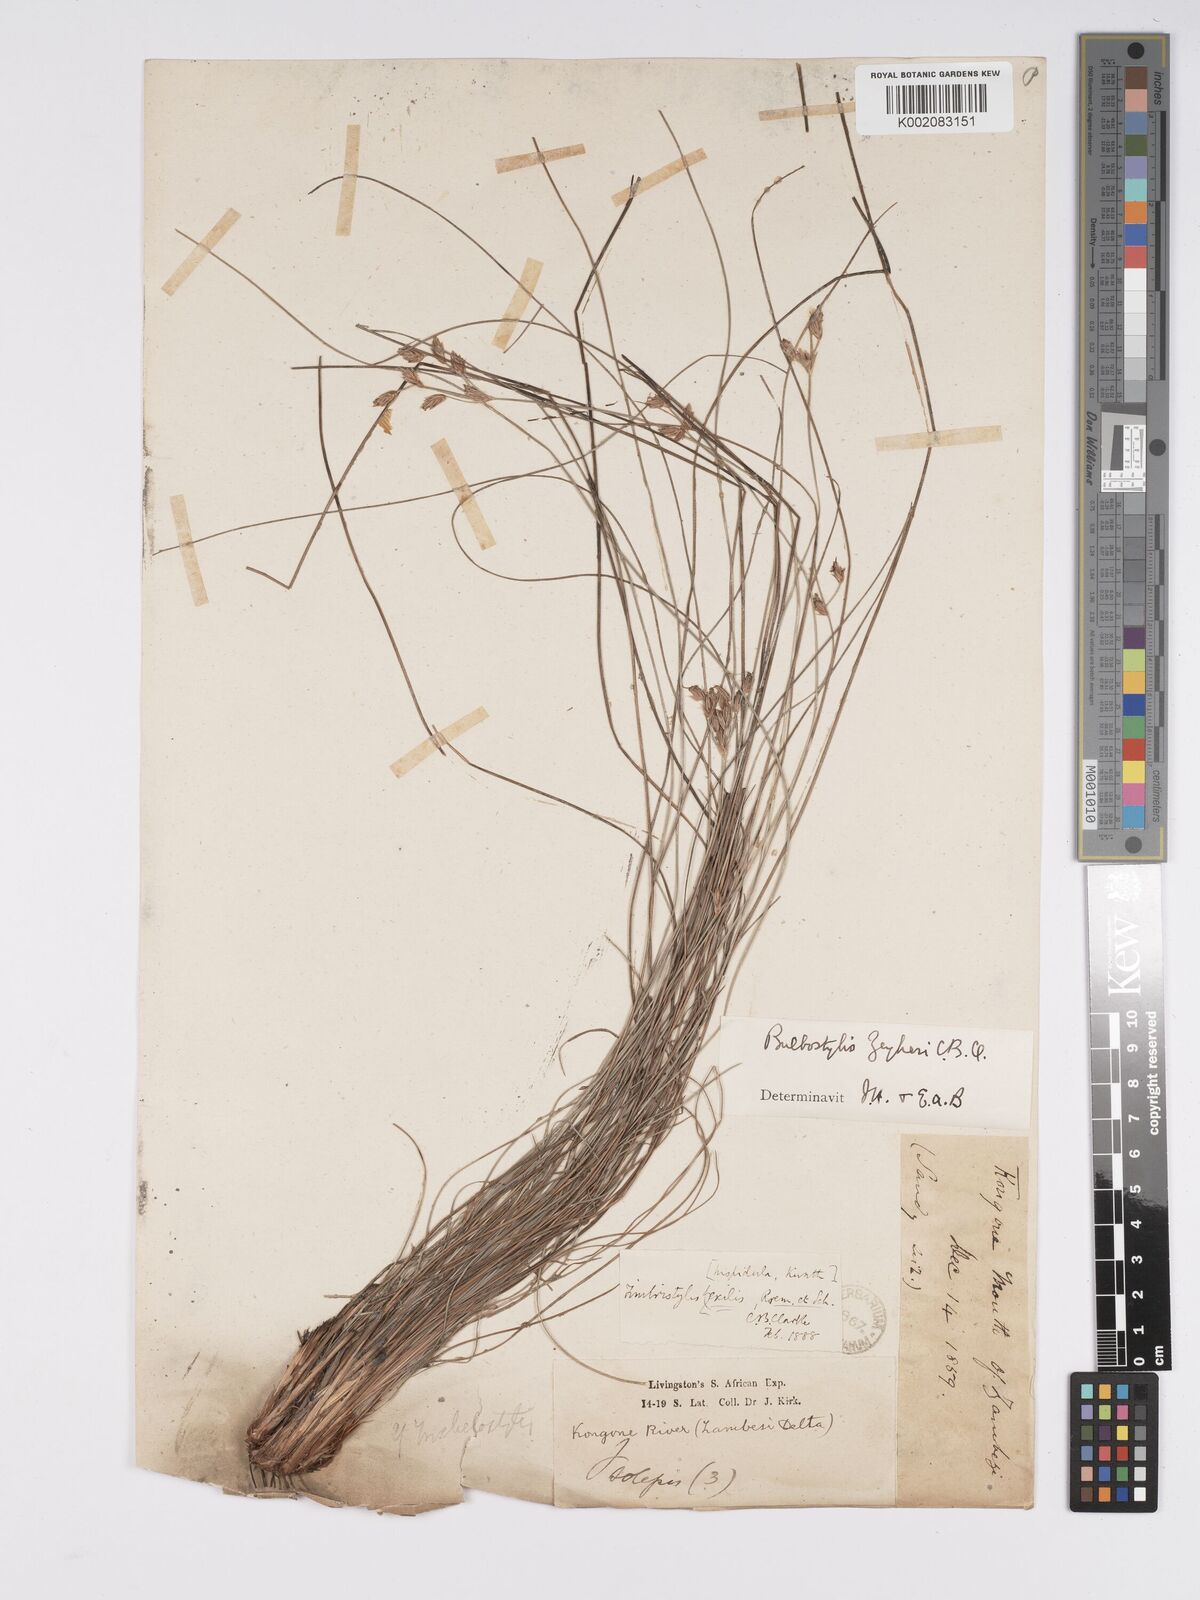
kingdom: Plantae
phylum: Tracheophyta
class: Liliopsida
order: Poales
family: Cyperaceae
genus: Bulbostylis
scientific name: Bulbostylis contexta
